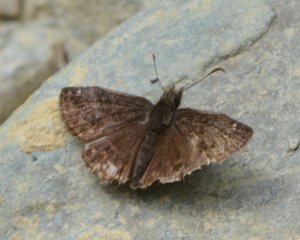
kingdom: Animalia
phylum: Arthropoda
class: Insecta
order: Lepidoptera
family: Hesperiidae
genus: Erynnis
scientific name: Erynnis icelus
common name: Dreamy Duskywing
